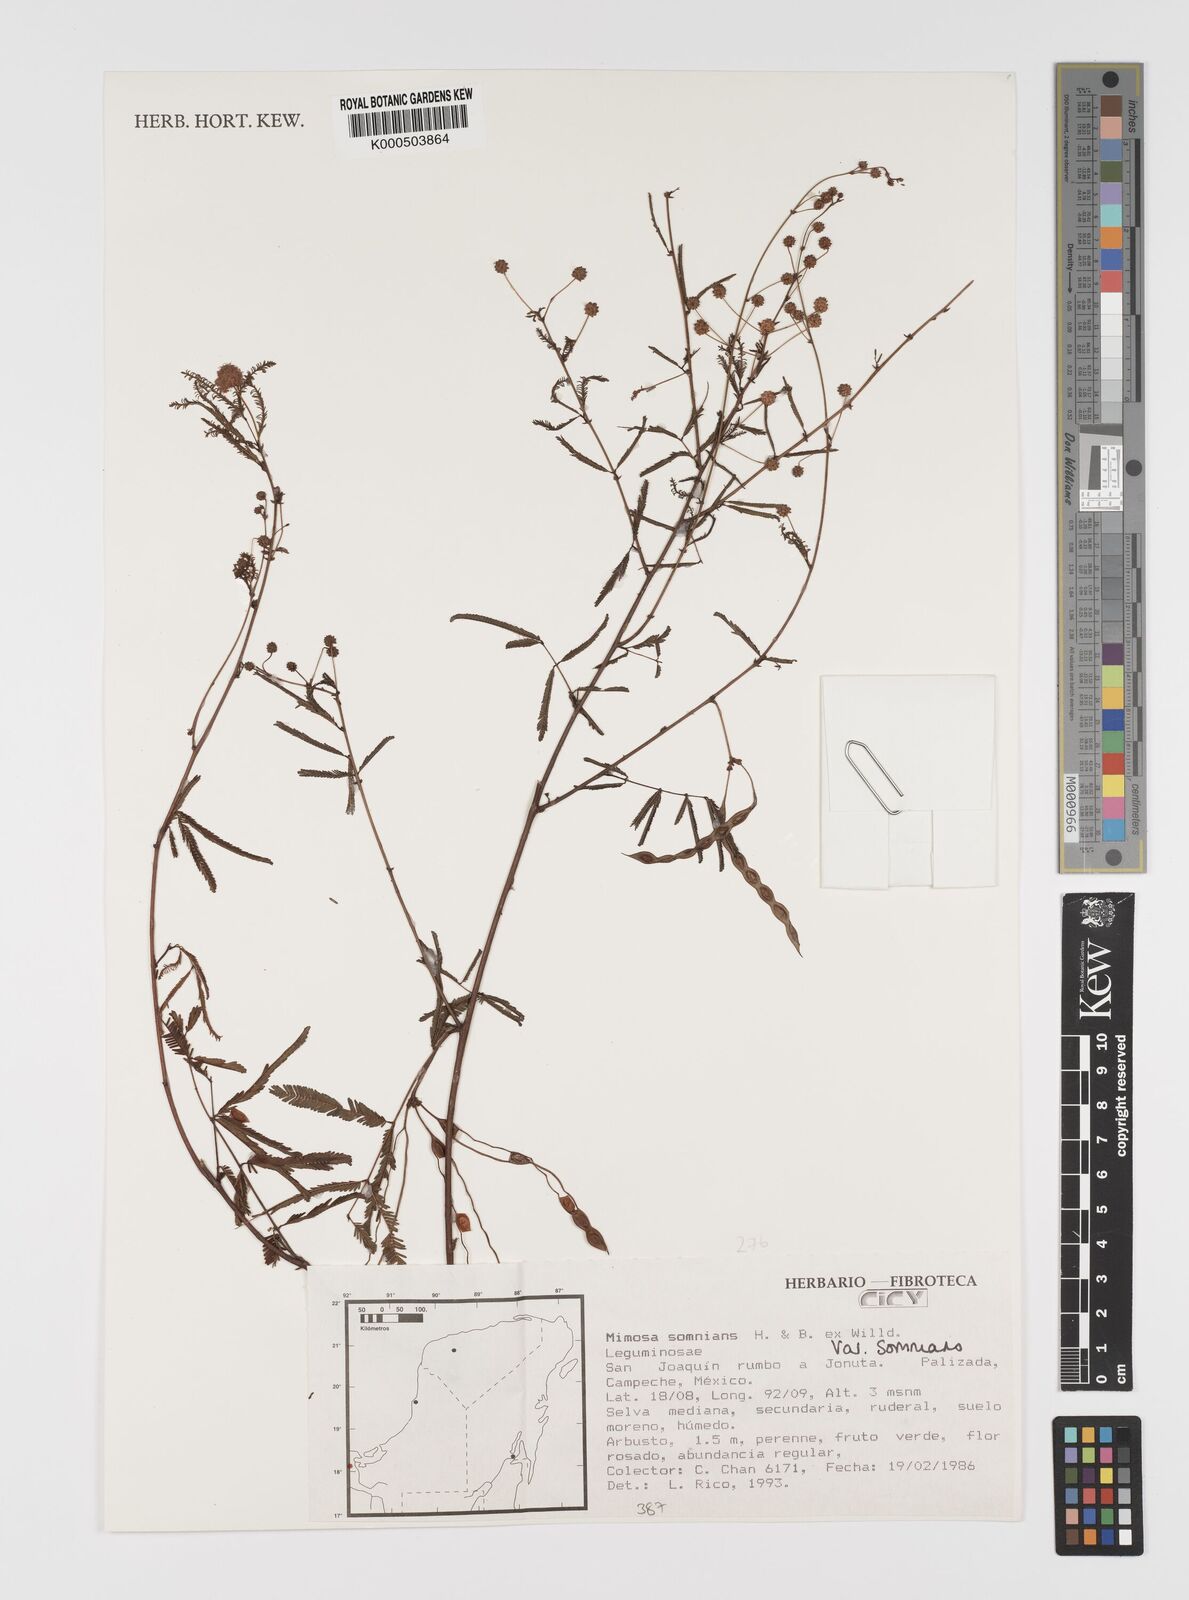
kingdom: Plantae
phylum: Tracheophyta
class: Magnoliopsida
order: Fabales
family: Fabaceae
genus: Mimosa
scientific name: Mimosa somnians
